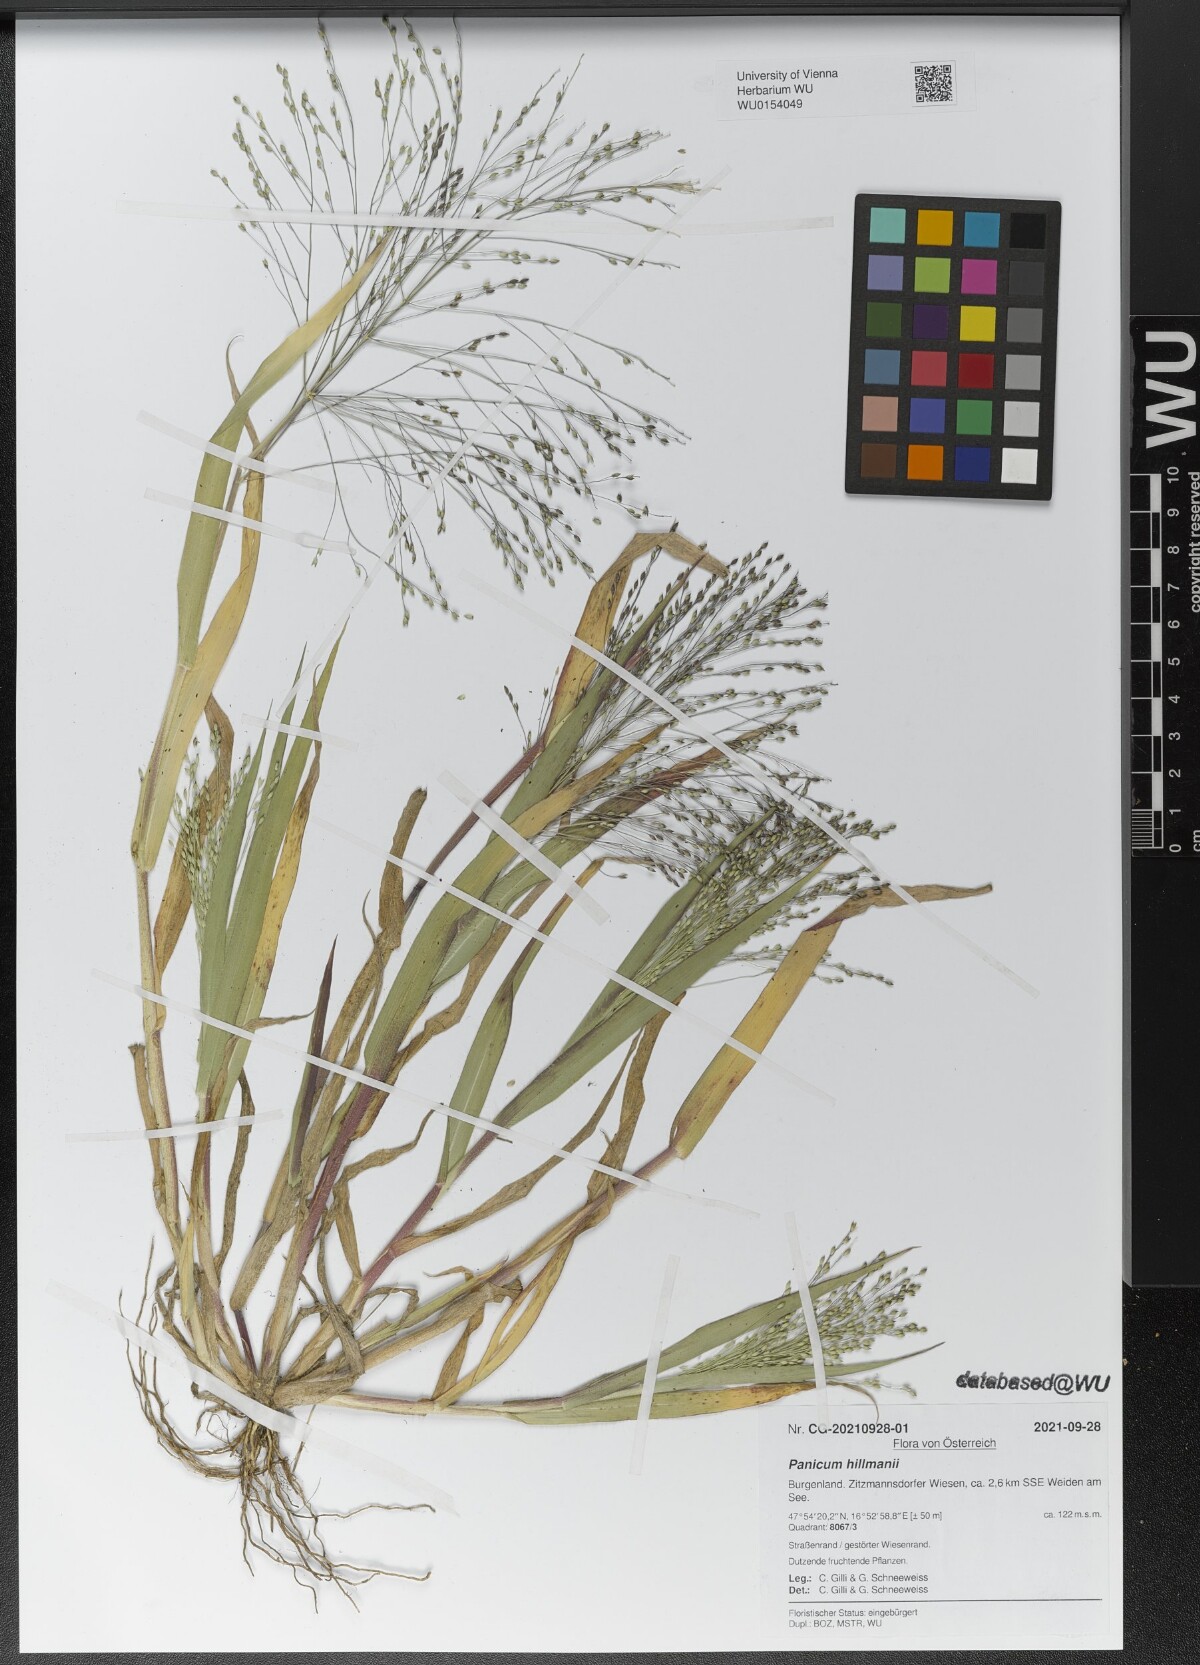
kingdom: Plantae
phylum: Tracheophyta
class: Liliopsida
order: Poales
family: Poaceae
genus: Panicum
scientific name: Panicum hillmanii
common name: Hillman's panicum
